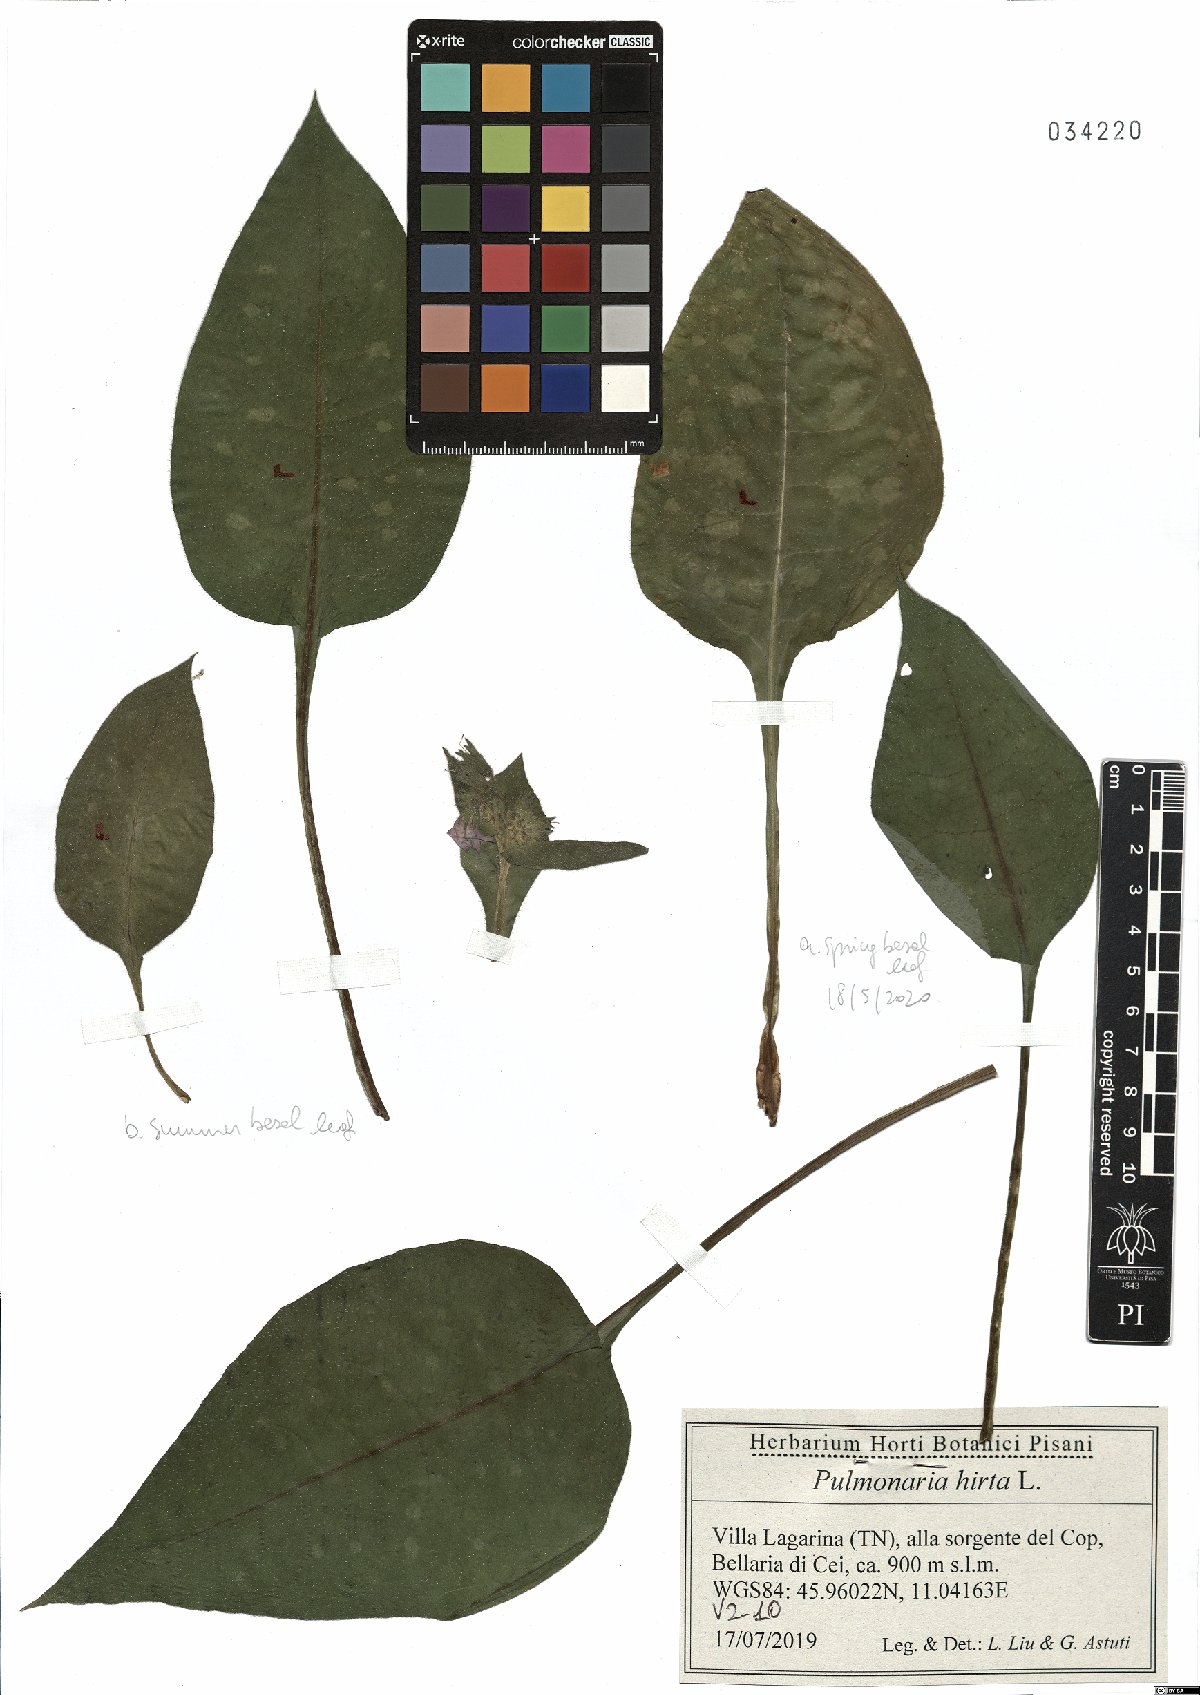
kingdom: Plantae
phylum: Tracheophyta
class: Magnoliopsida
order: Boraginales
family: Boraginaceae
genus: Pulmonaria
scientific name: Pulmonaria hirta
